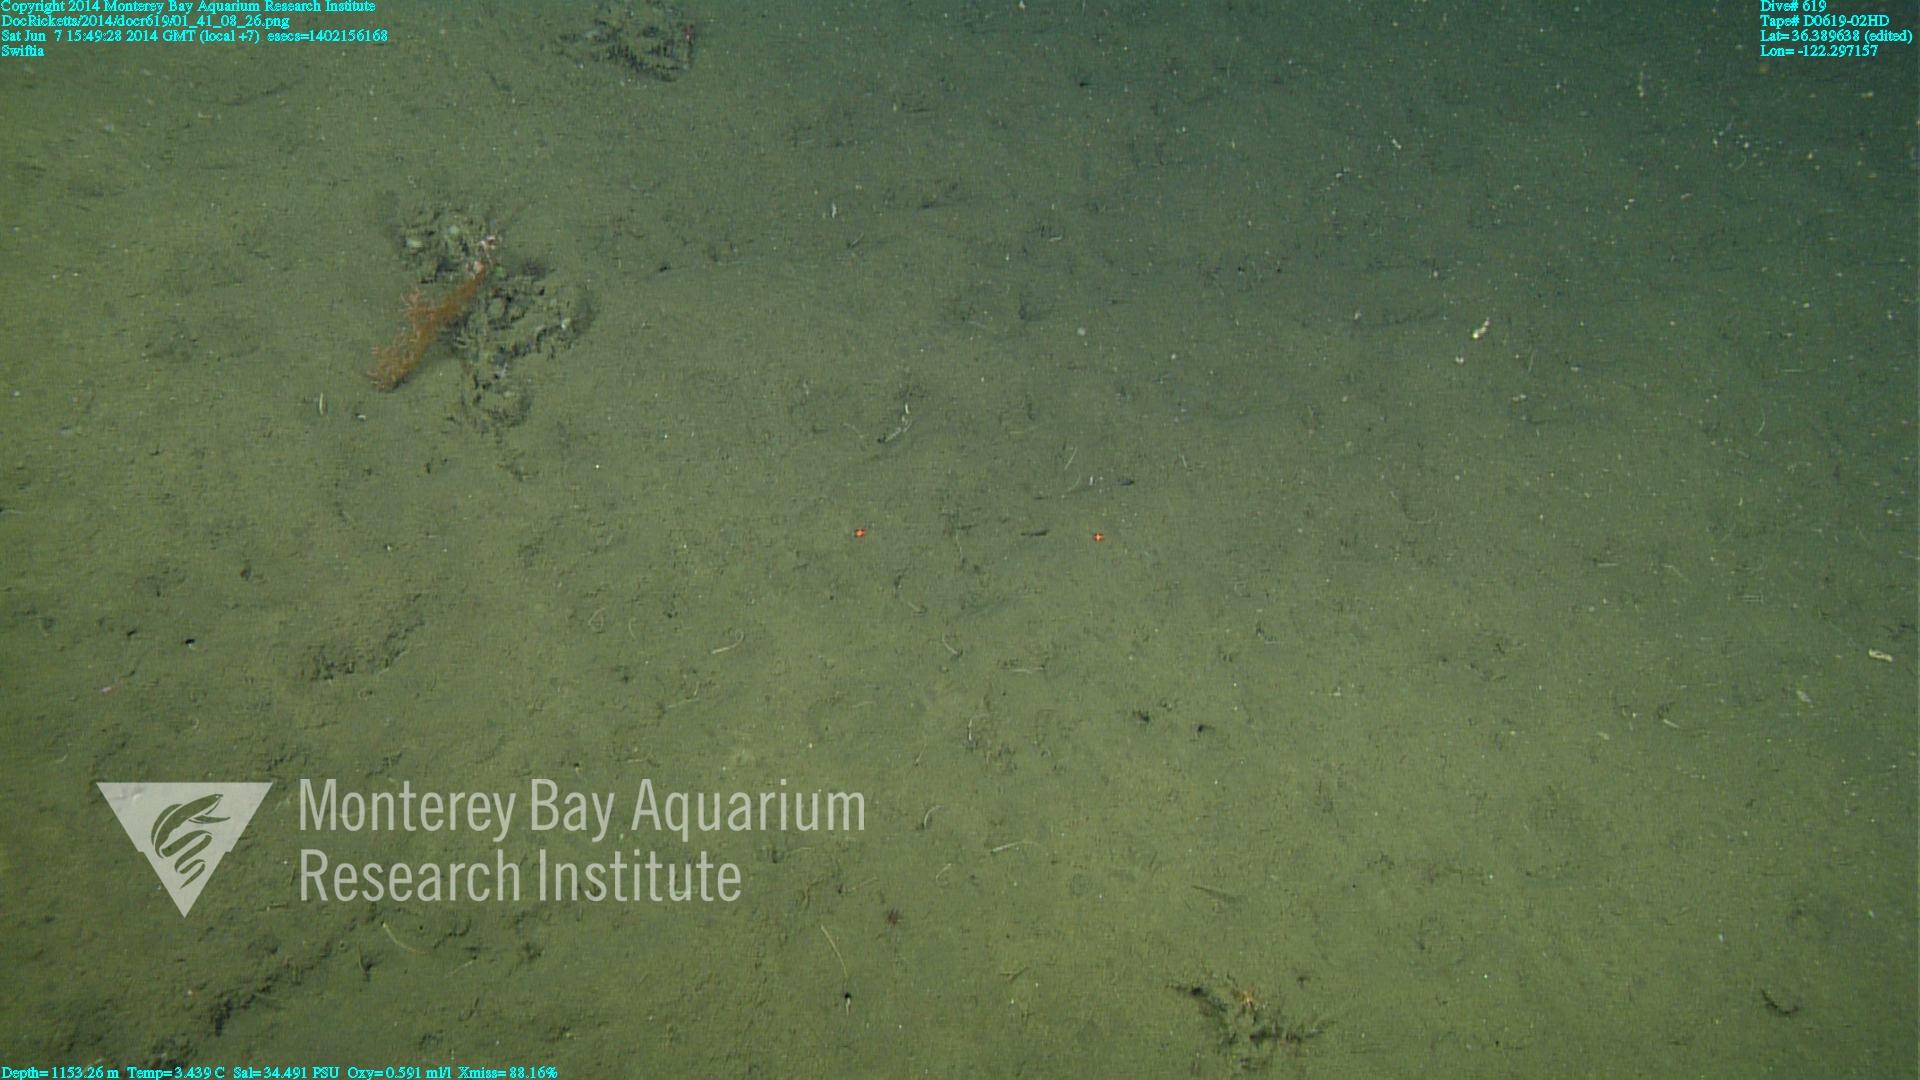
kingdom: Animalia
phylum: Cnidaria
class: Anthozoa
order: Malacalcyonacea
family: Gorgoniidae
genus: Callistephanus
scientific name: Callistephanus kofoidi
